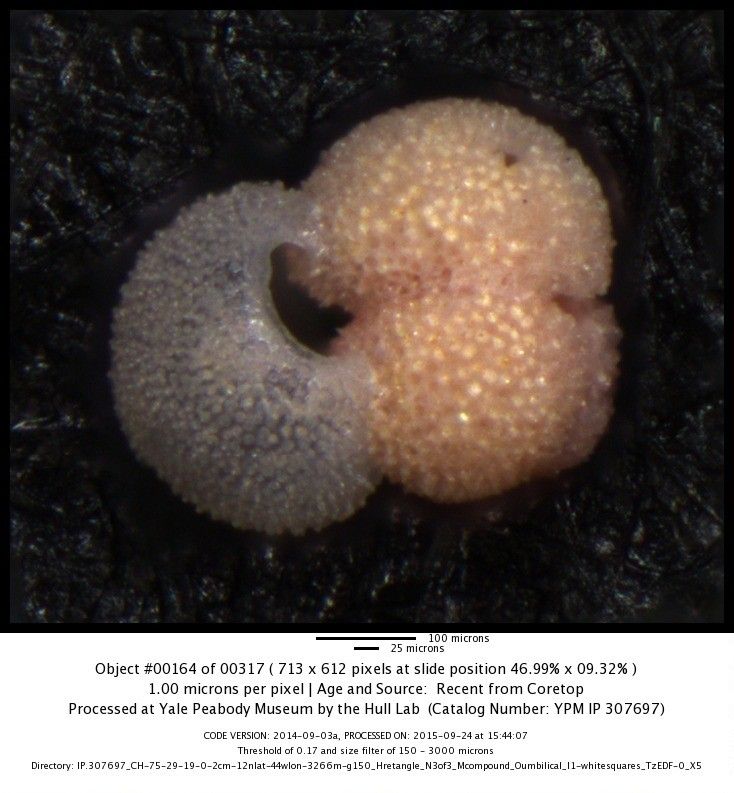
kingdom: Chromista
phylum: Foraminifera
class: Globothalamea
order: Rotaliida
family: Globigerinidae
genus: Globigerinoides
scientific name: Globigerinoides ruber
